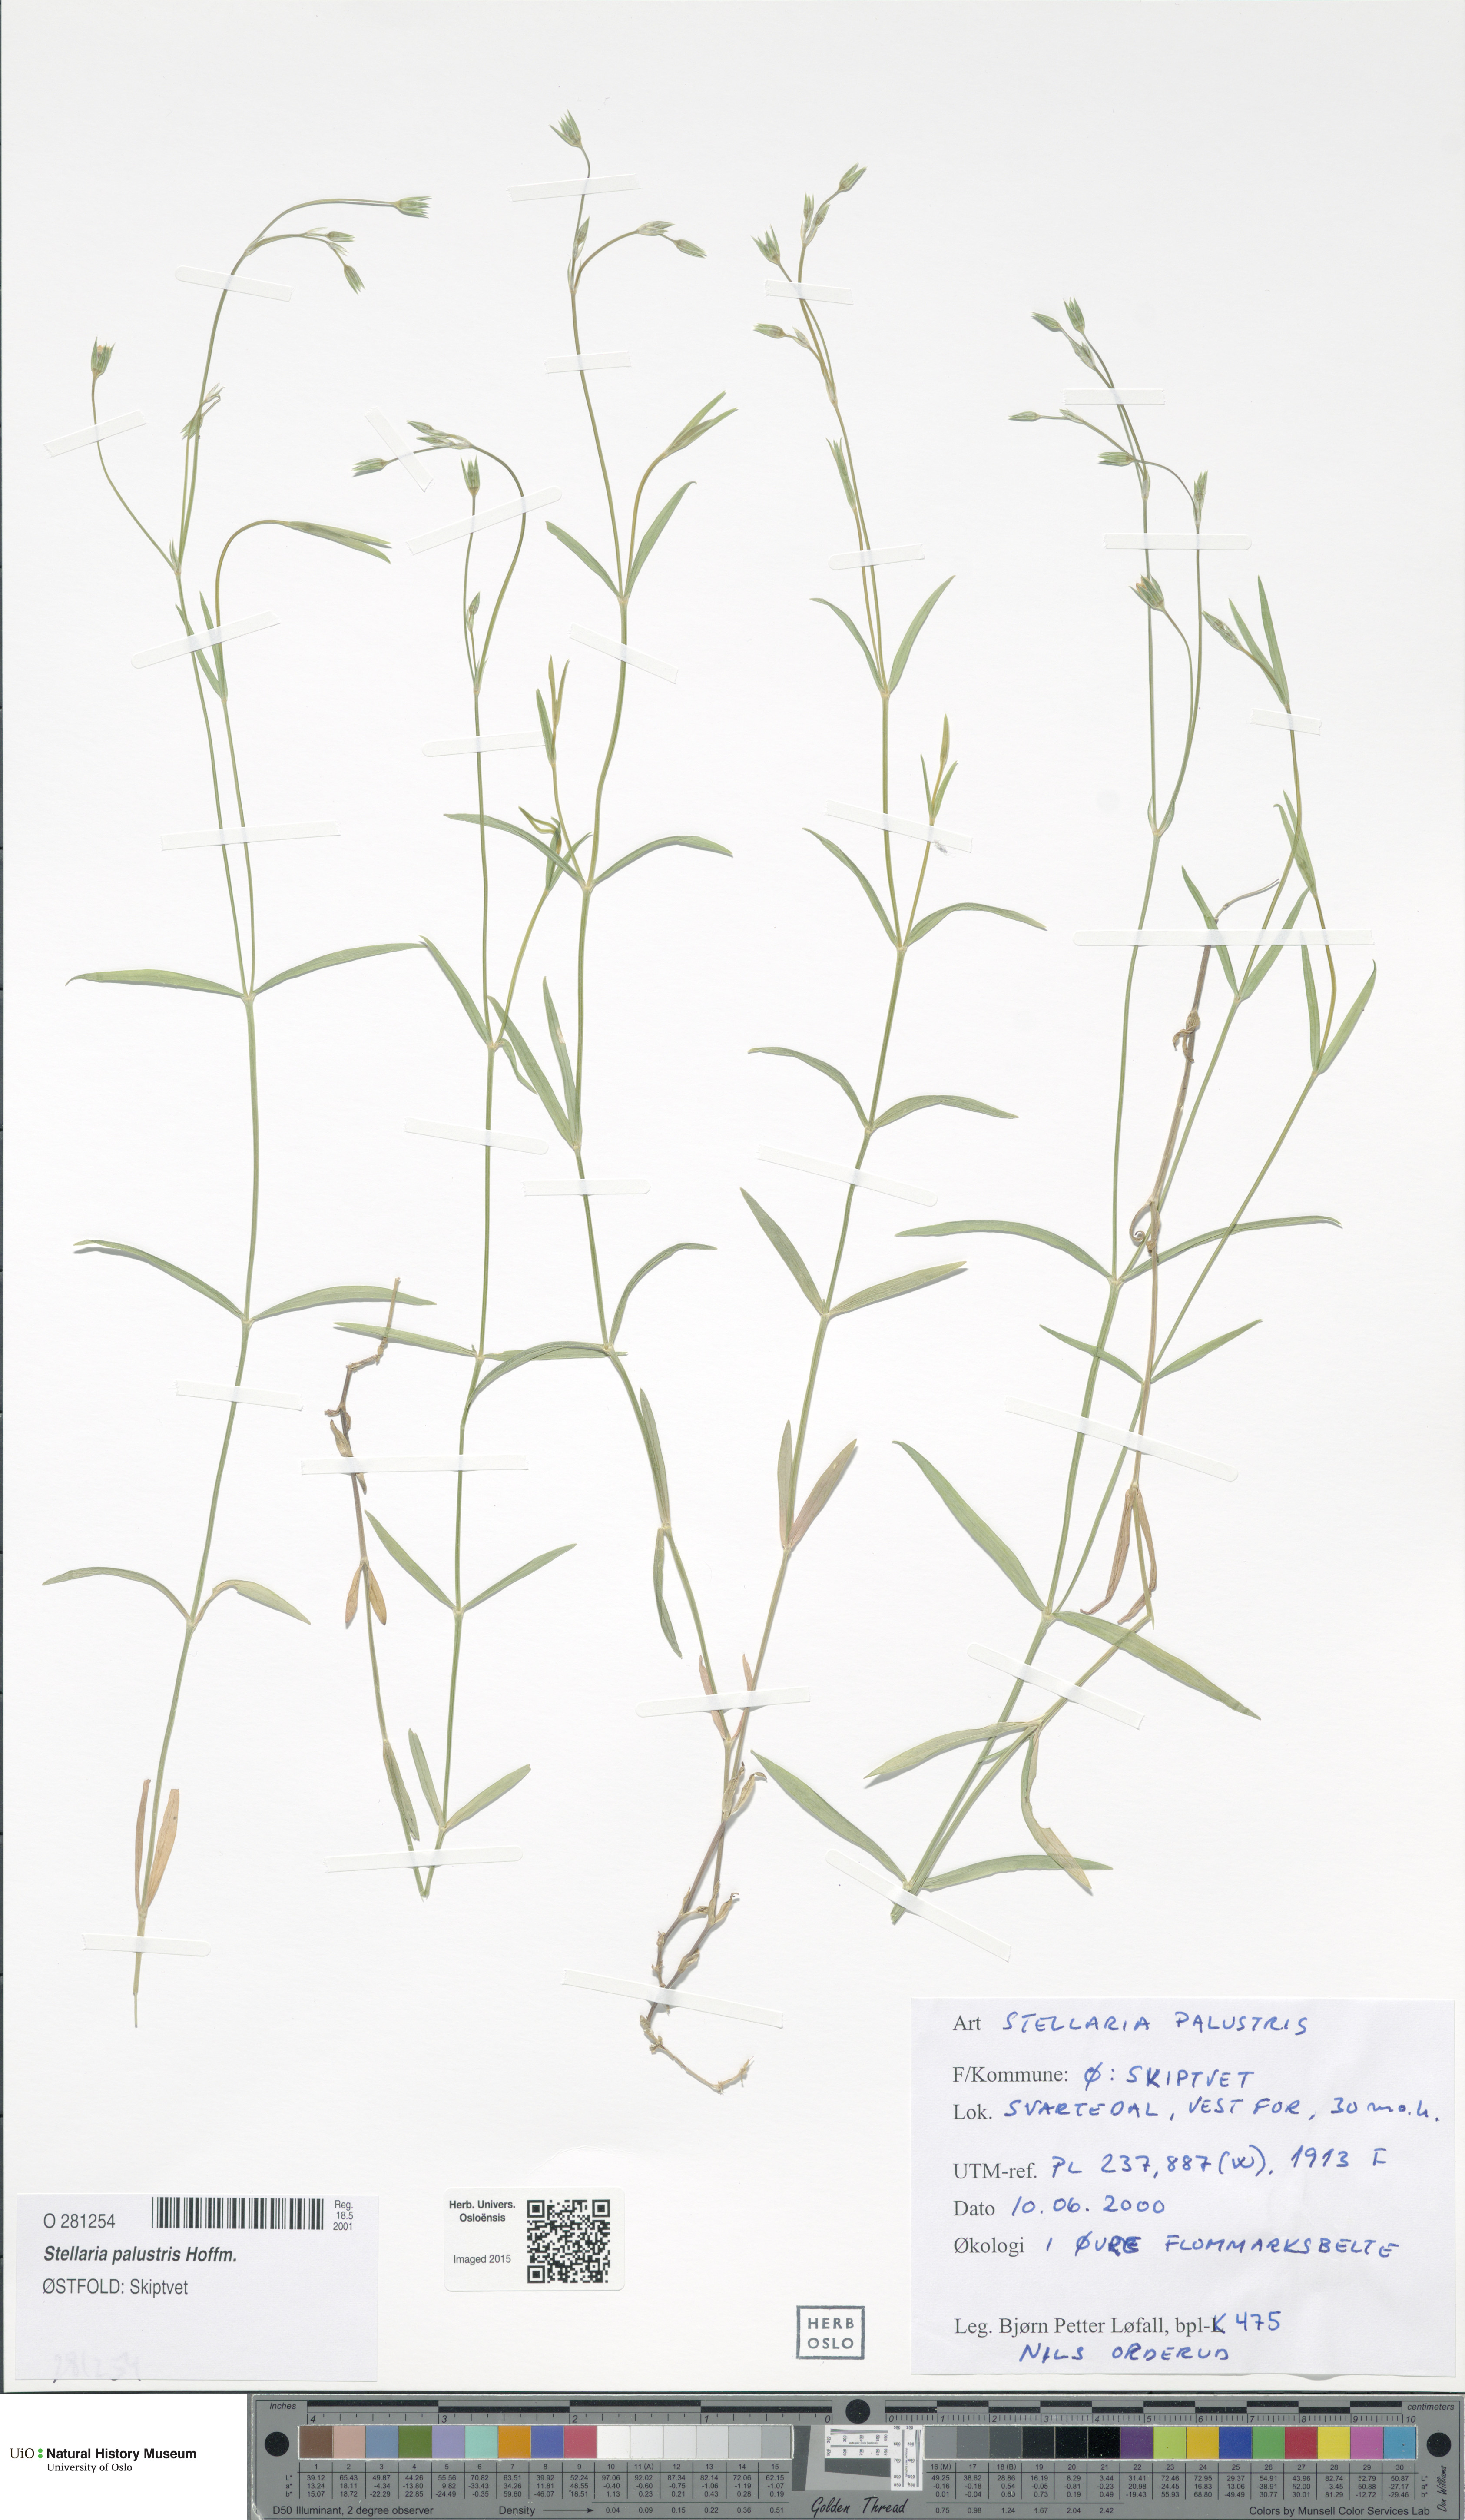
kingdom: Plantae
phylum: Tracheophyta
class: Magnoliopsida
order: Caryophyllales
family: Caryophyllaceae
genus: Stellaria
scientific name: Stellaria palustris
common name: Marsh stitchwort
